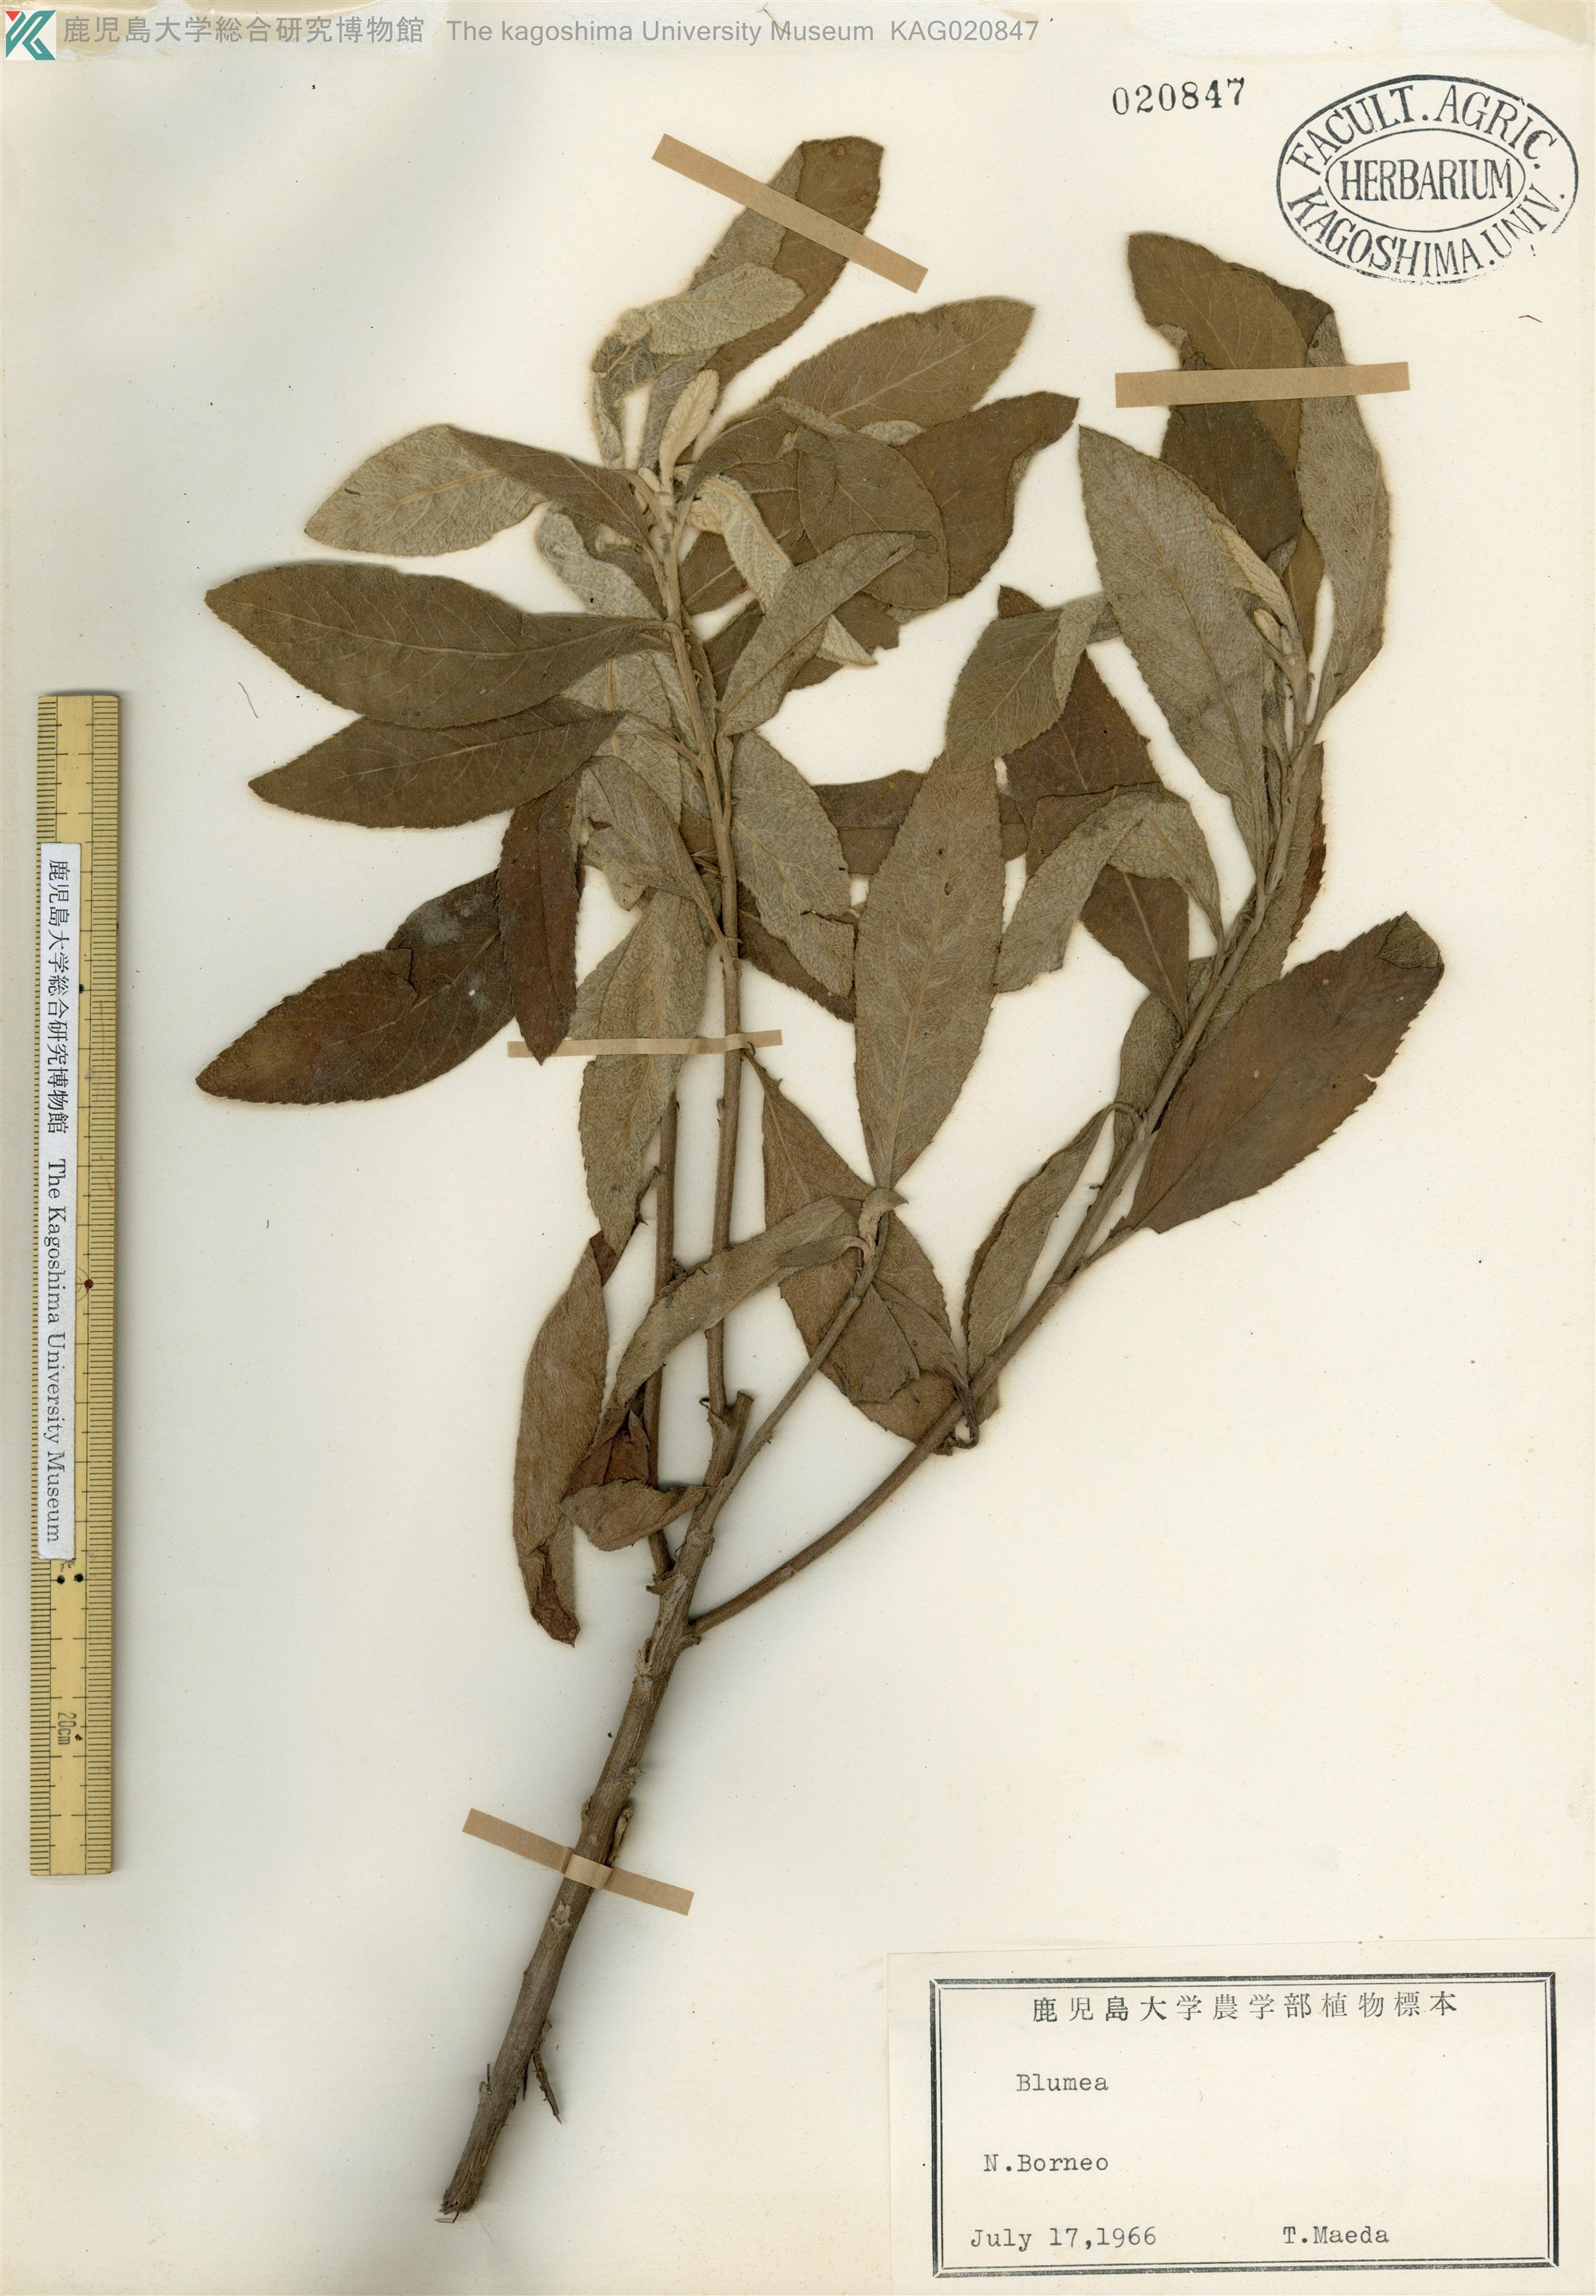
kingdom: Plantae
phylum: Tracheophyta
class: Magnoliopsida
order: Asterales
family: Asteraceae
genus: Blumea
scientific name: Blumea
